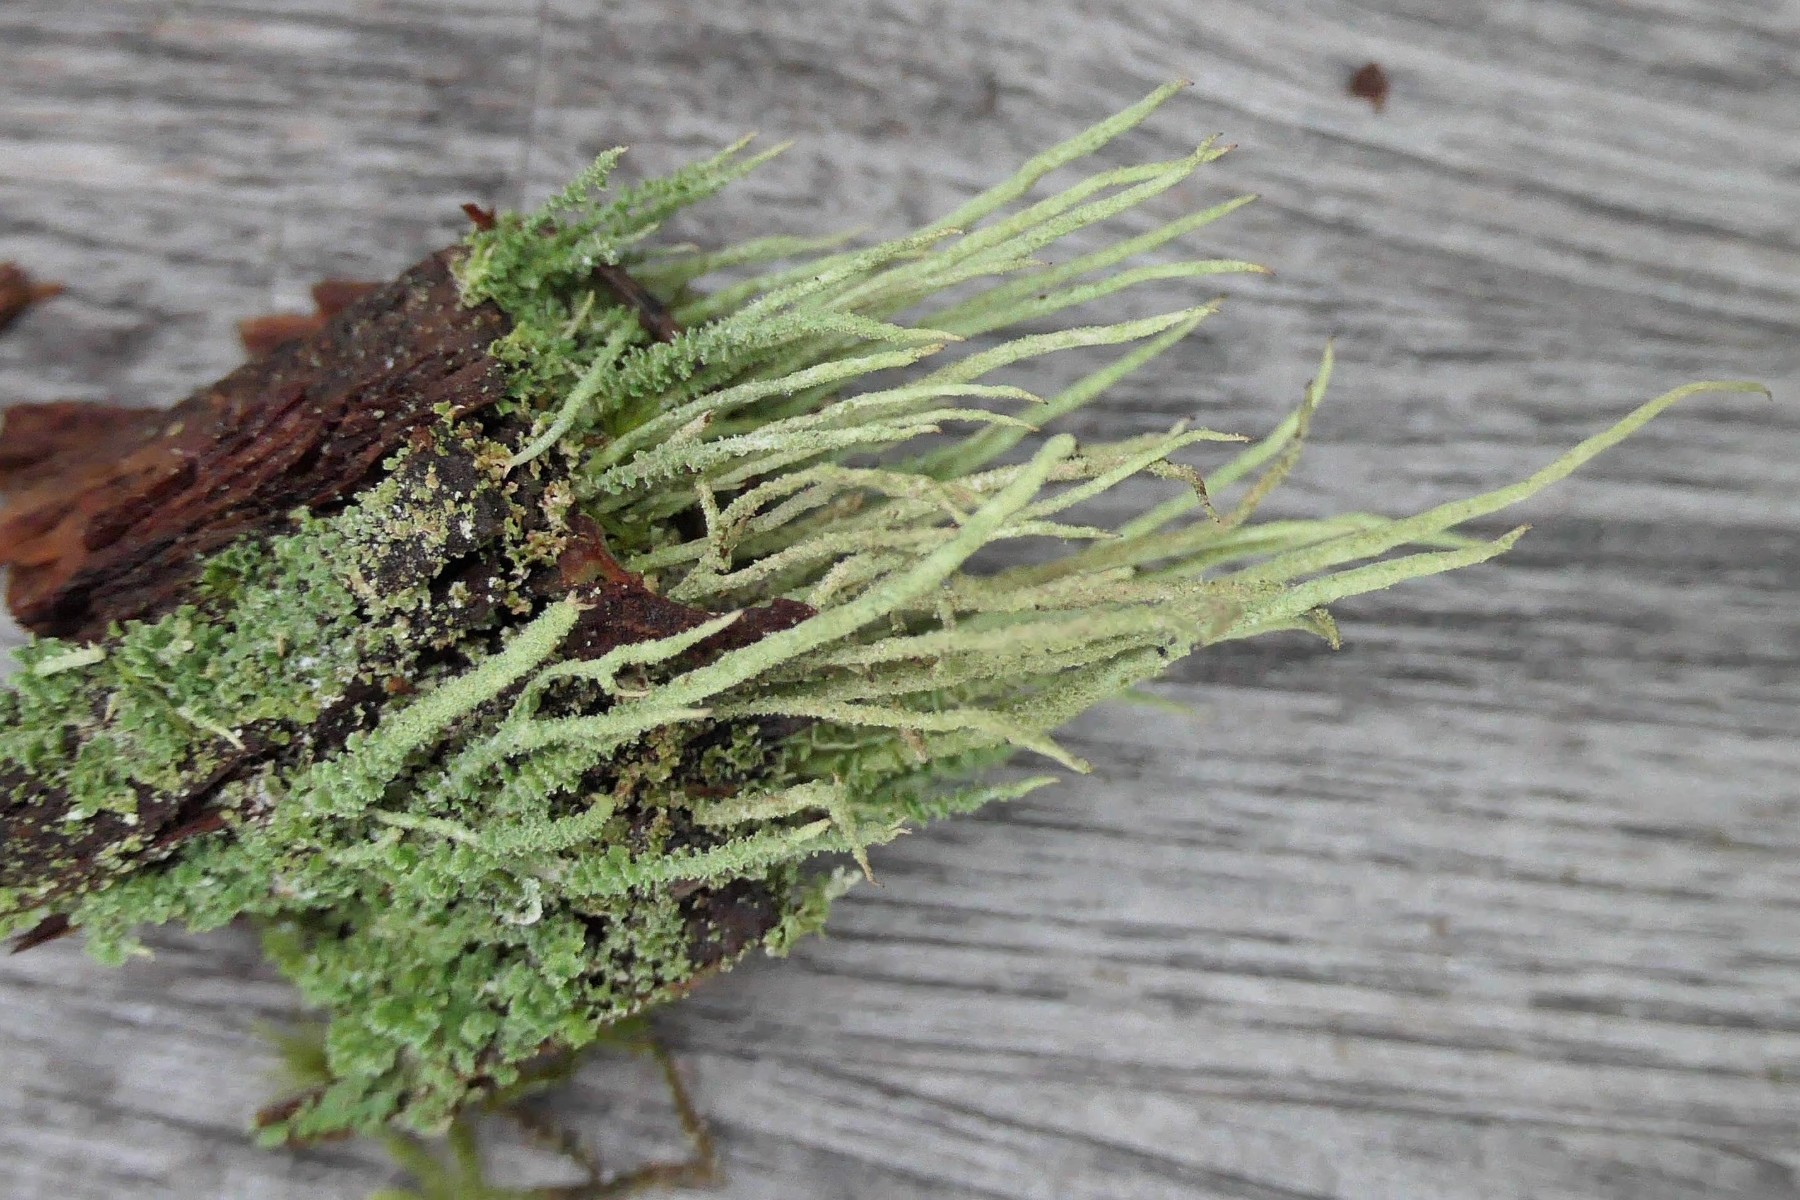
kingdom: Fungi
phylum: Ascomycota
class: Lecanoromycetes
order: Lecanorales
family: Cladoniaceae
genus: Cladonia
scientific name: Cladonia glauca
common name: grågrøn bægerlav
